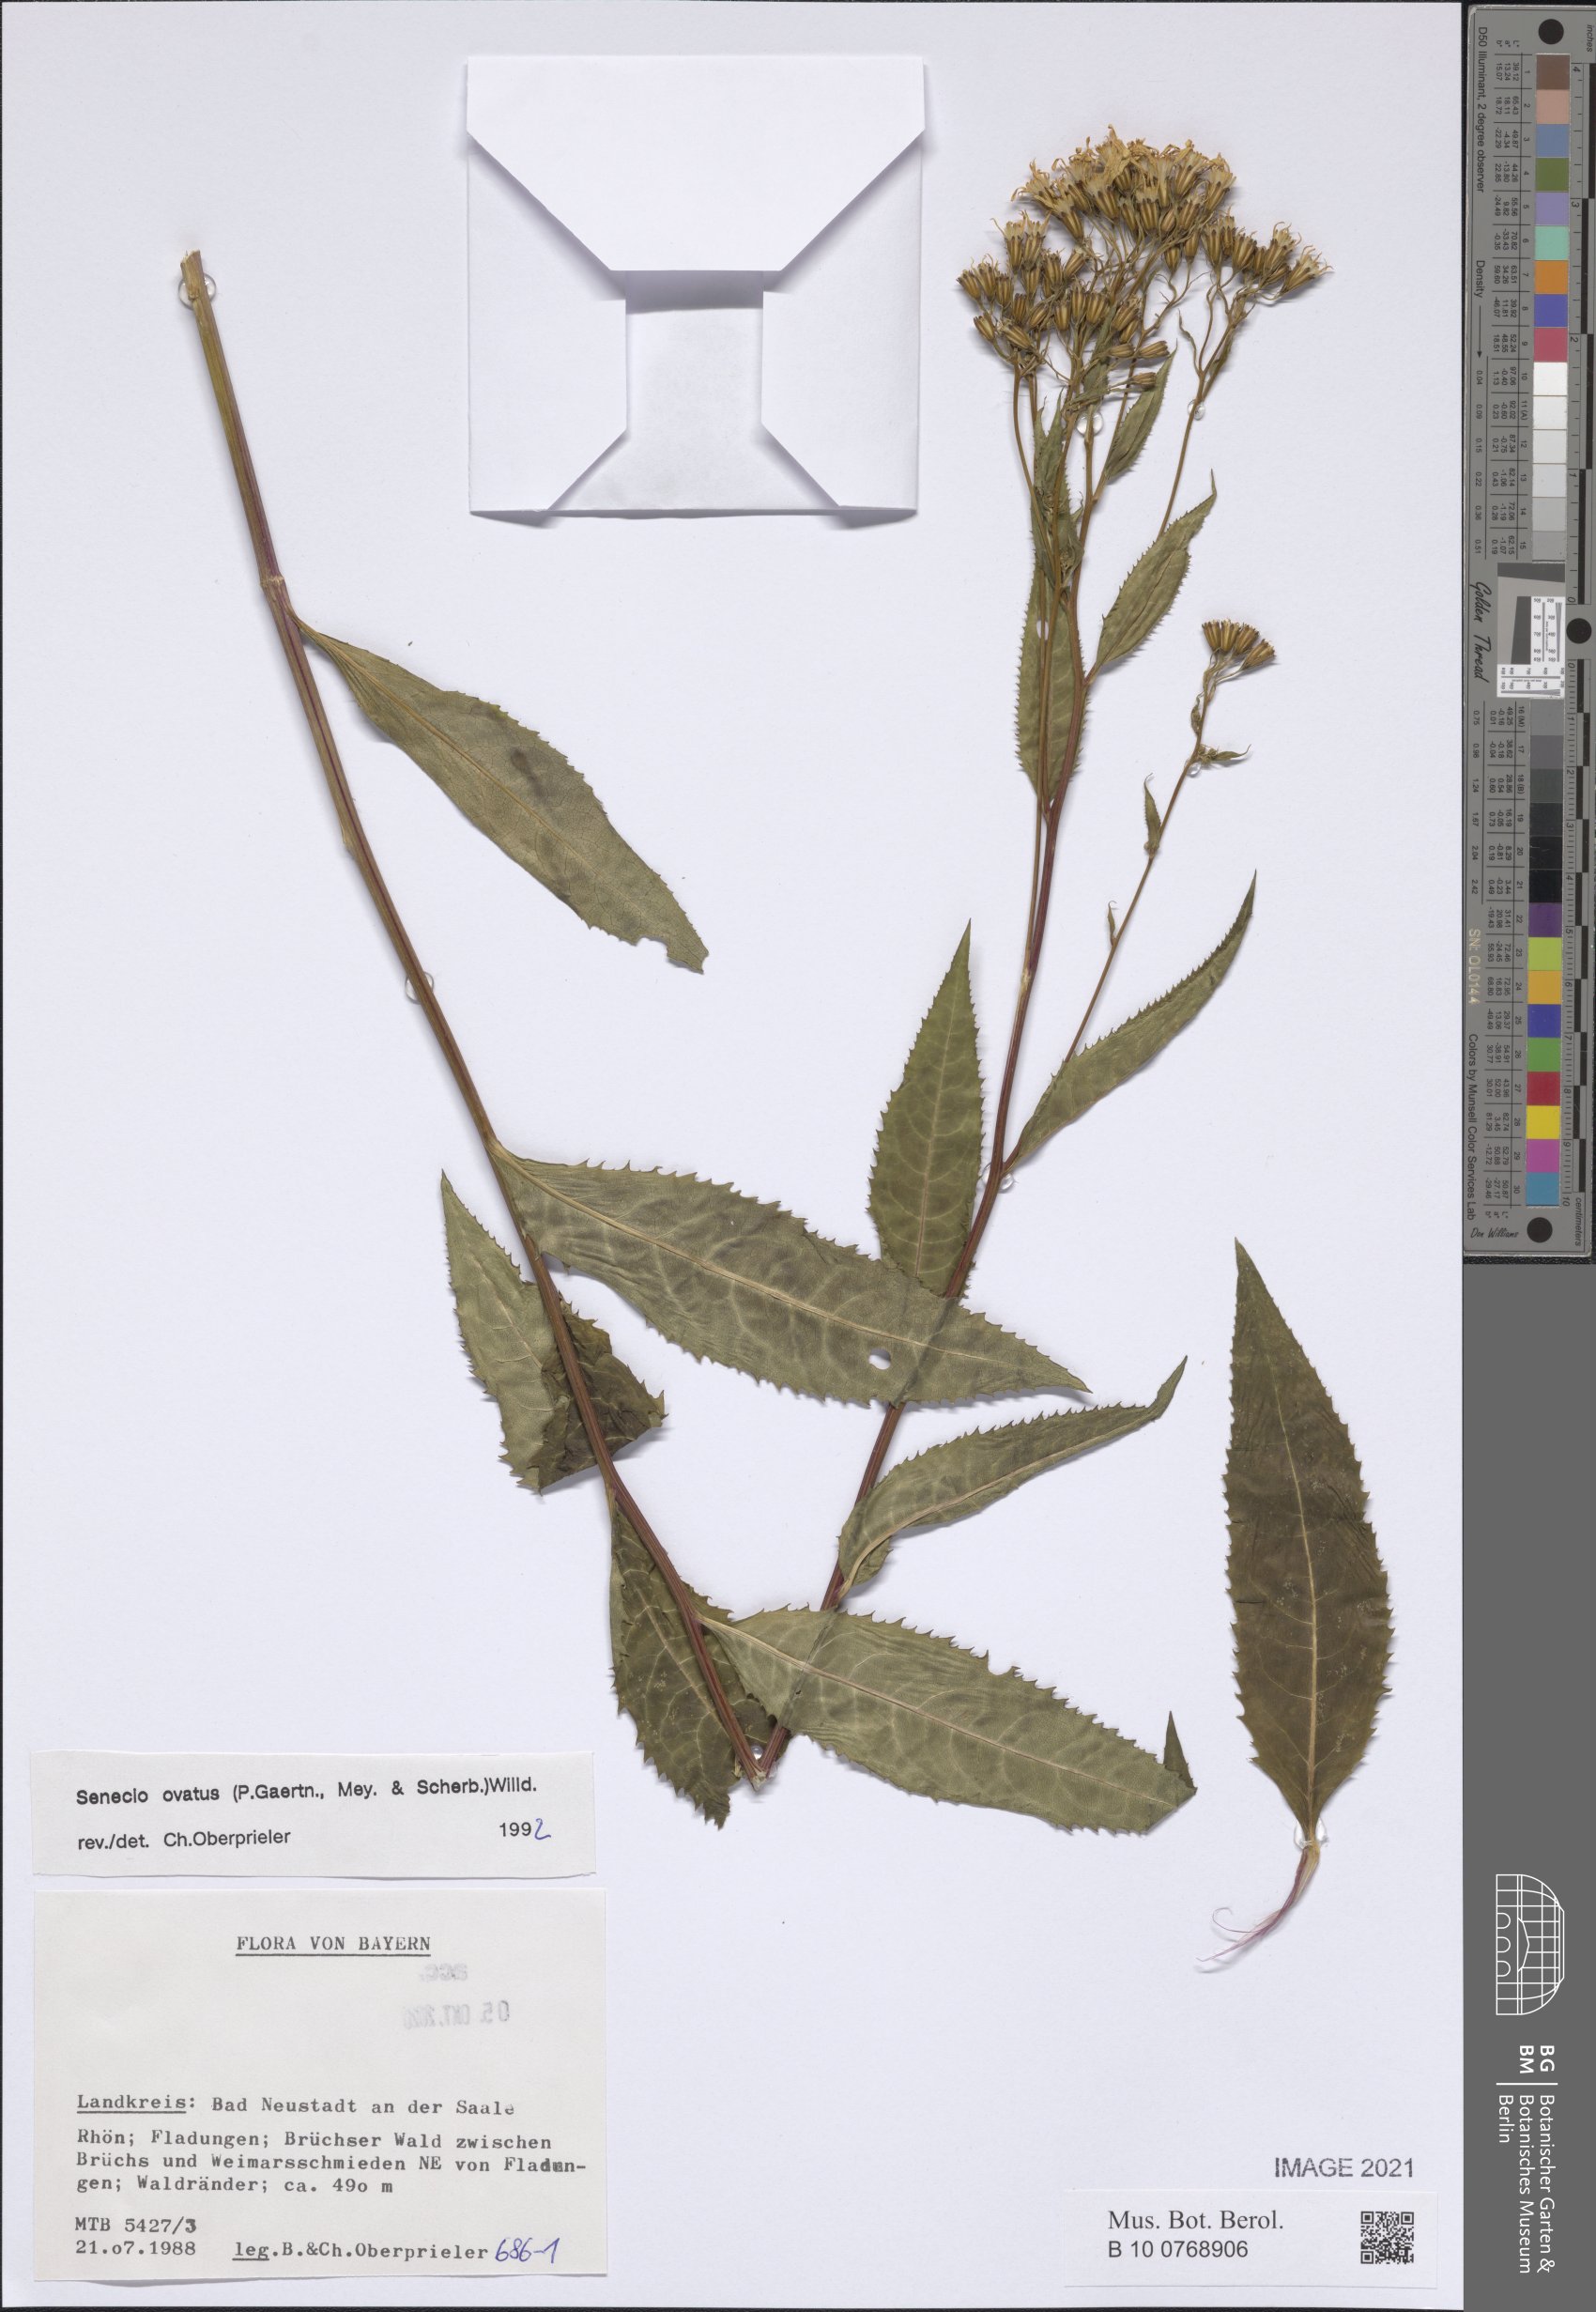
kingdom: Plantae
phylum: Tracheophyta
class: Magnoliopsida
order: Asterales
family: Asteraceae
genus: Senecio
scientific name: Senecio ovatus
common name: Wood ragwort
